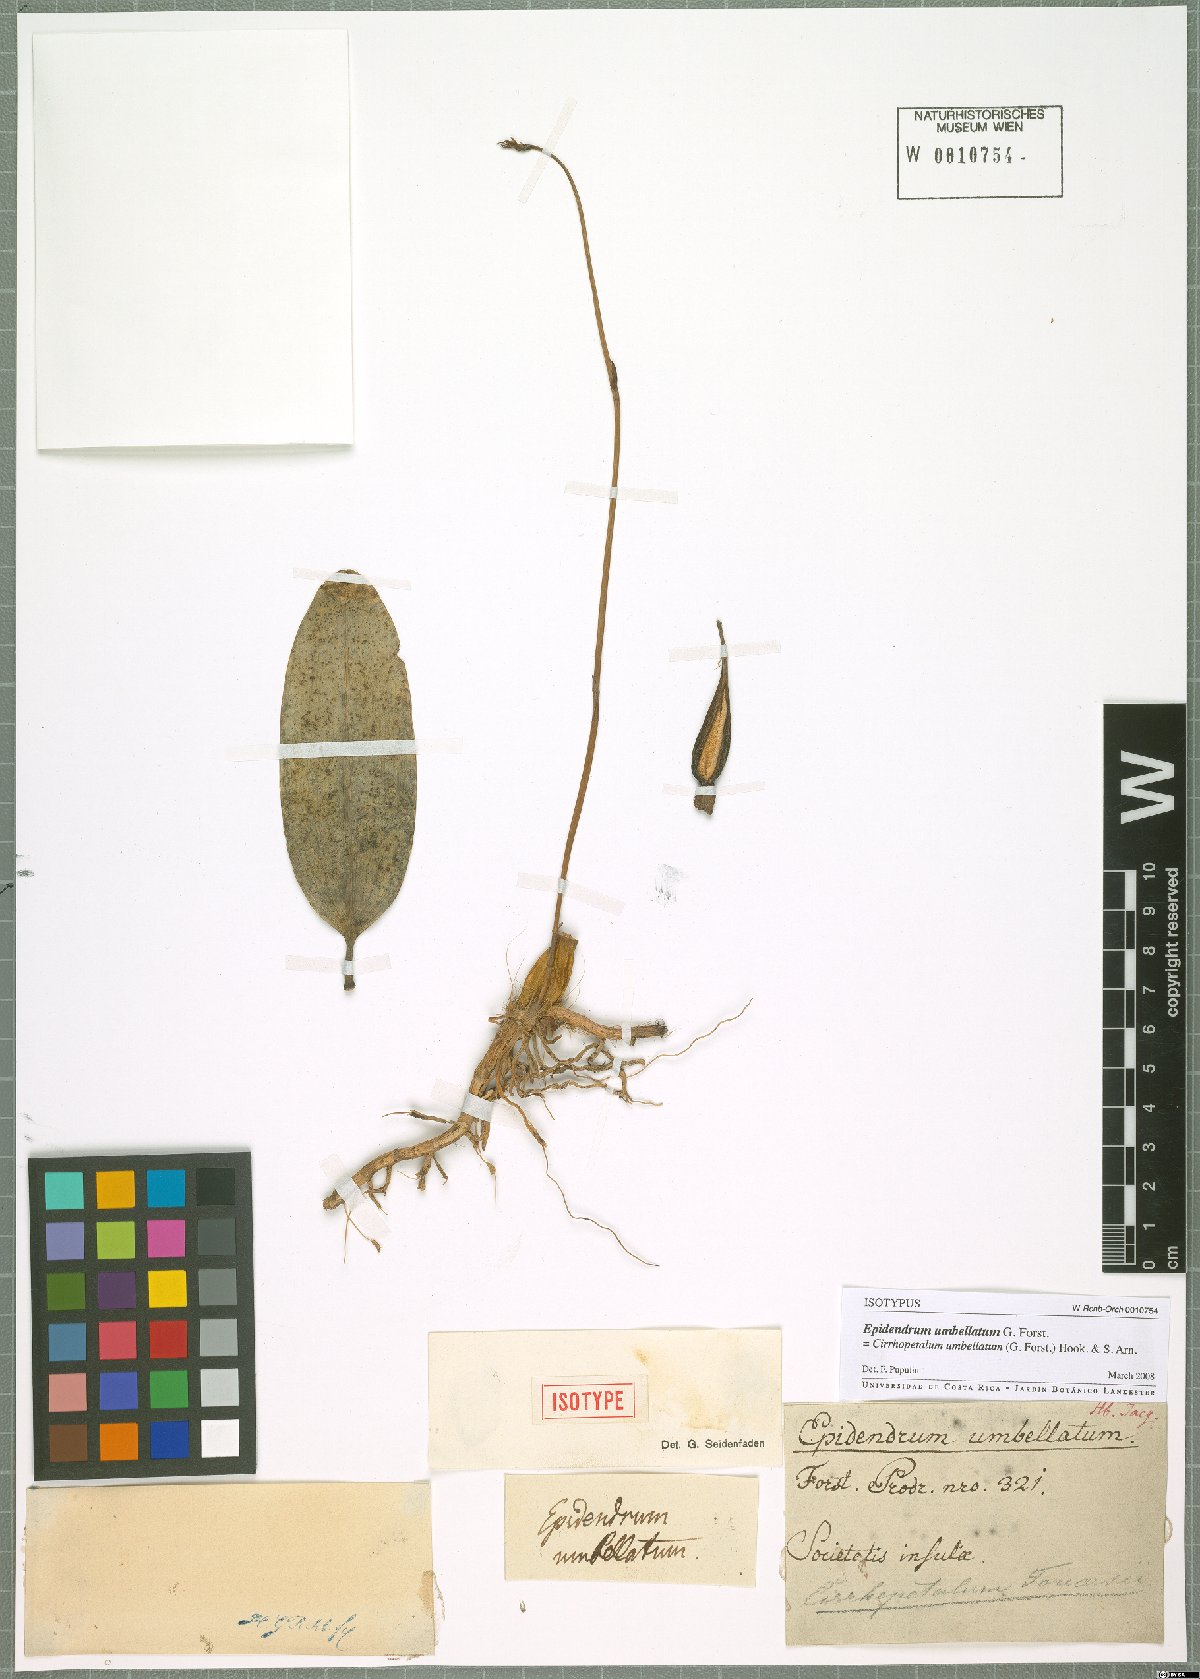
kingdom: Plantae
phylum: Tracheophyta
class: Liliopsida
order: Asparagales
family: Orchidaceae
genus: Bulbophyllum
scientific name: Bulbophyllum longiflorum
